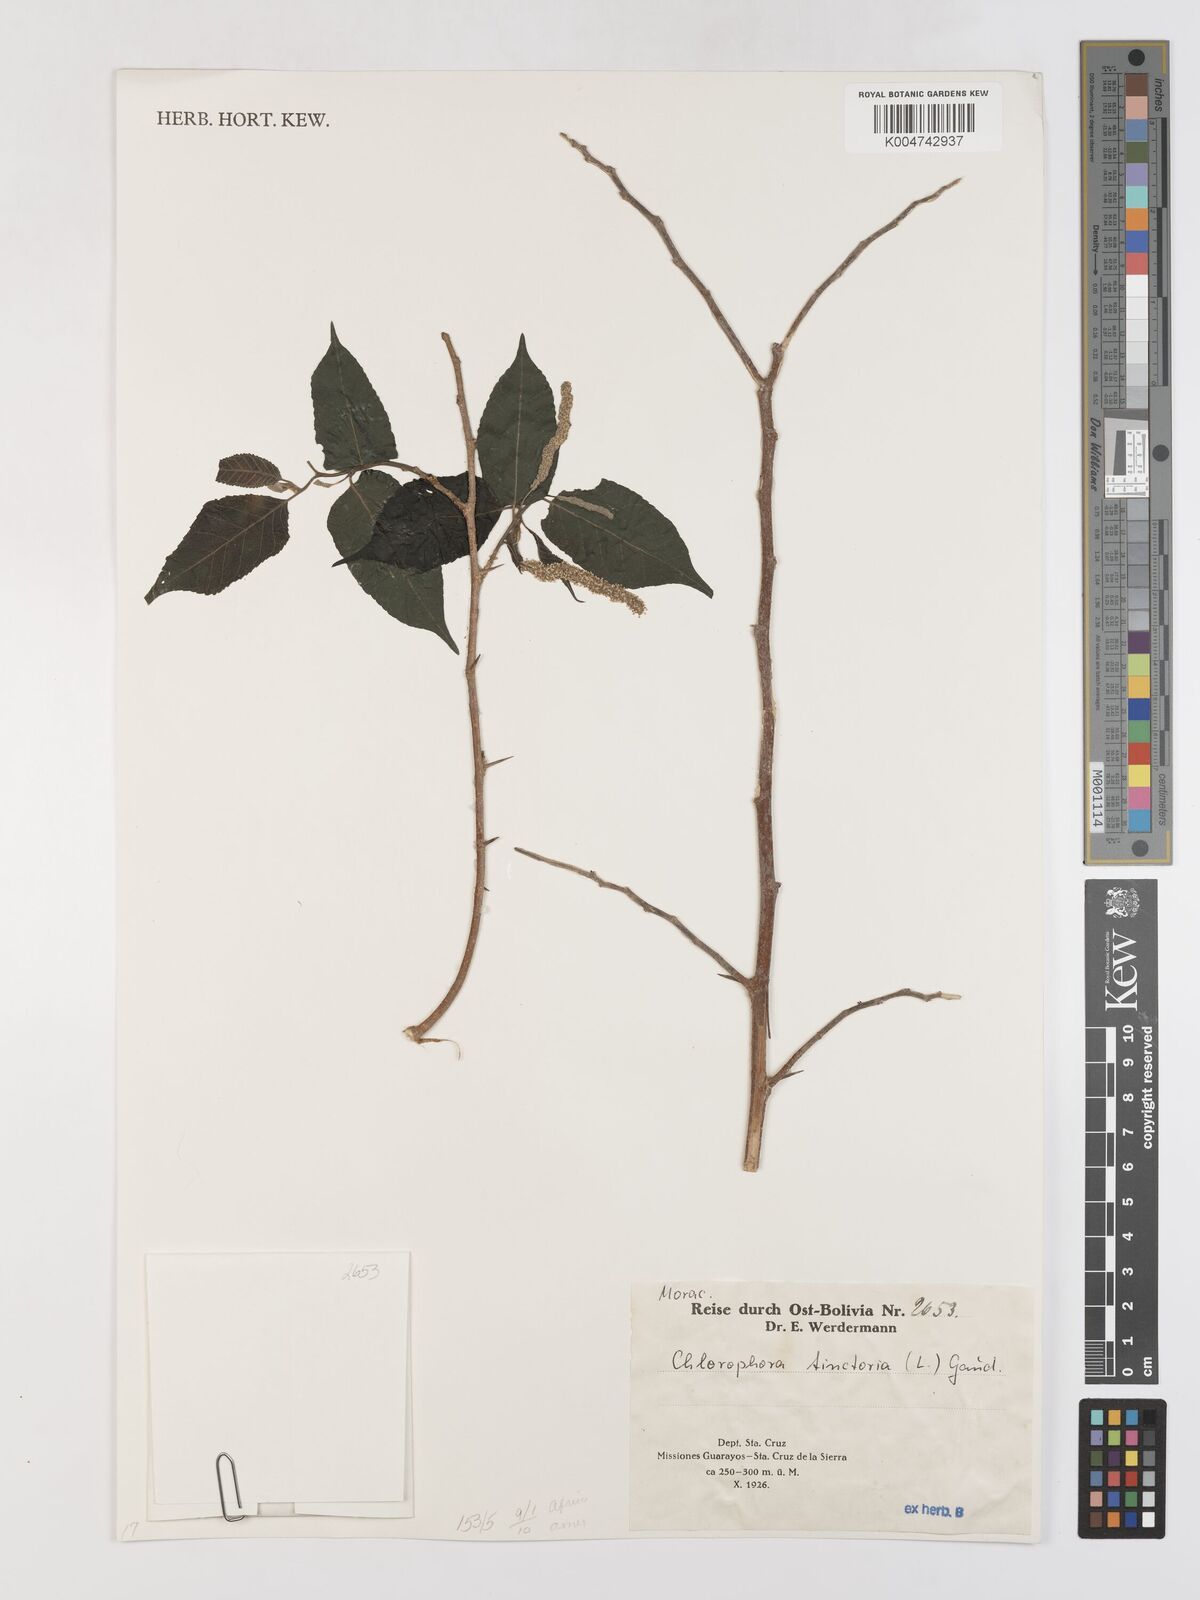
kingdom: Plantae
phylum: Tracheophyta
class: Magnoliopsida
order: Rosales
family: Moraceae
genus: Maclura
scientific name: Maclura tinctoria
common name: Old fustic
